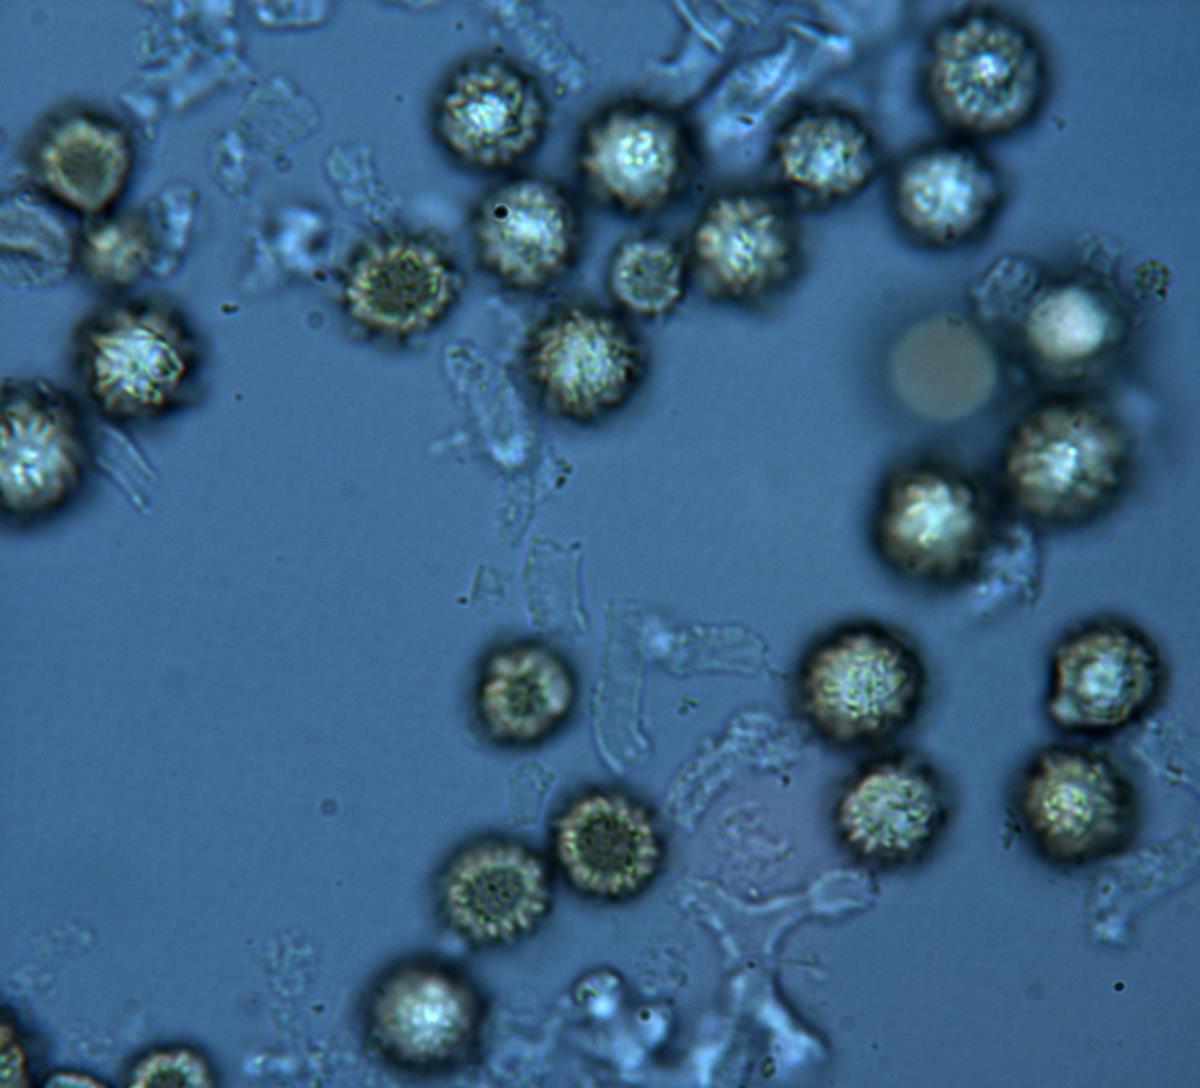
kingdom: Fungi
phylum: Basidiomycota
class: Agaricomycetes
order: Boletales
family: Sclerodermataceae
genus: Pisolithus
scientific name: Pisolithus thermaeus
